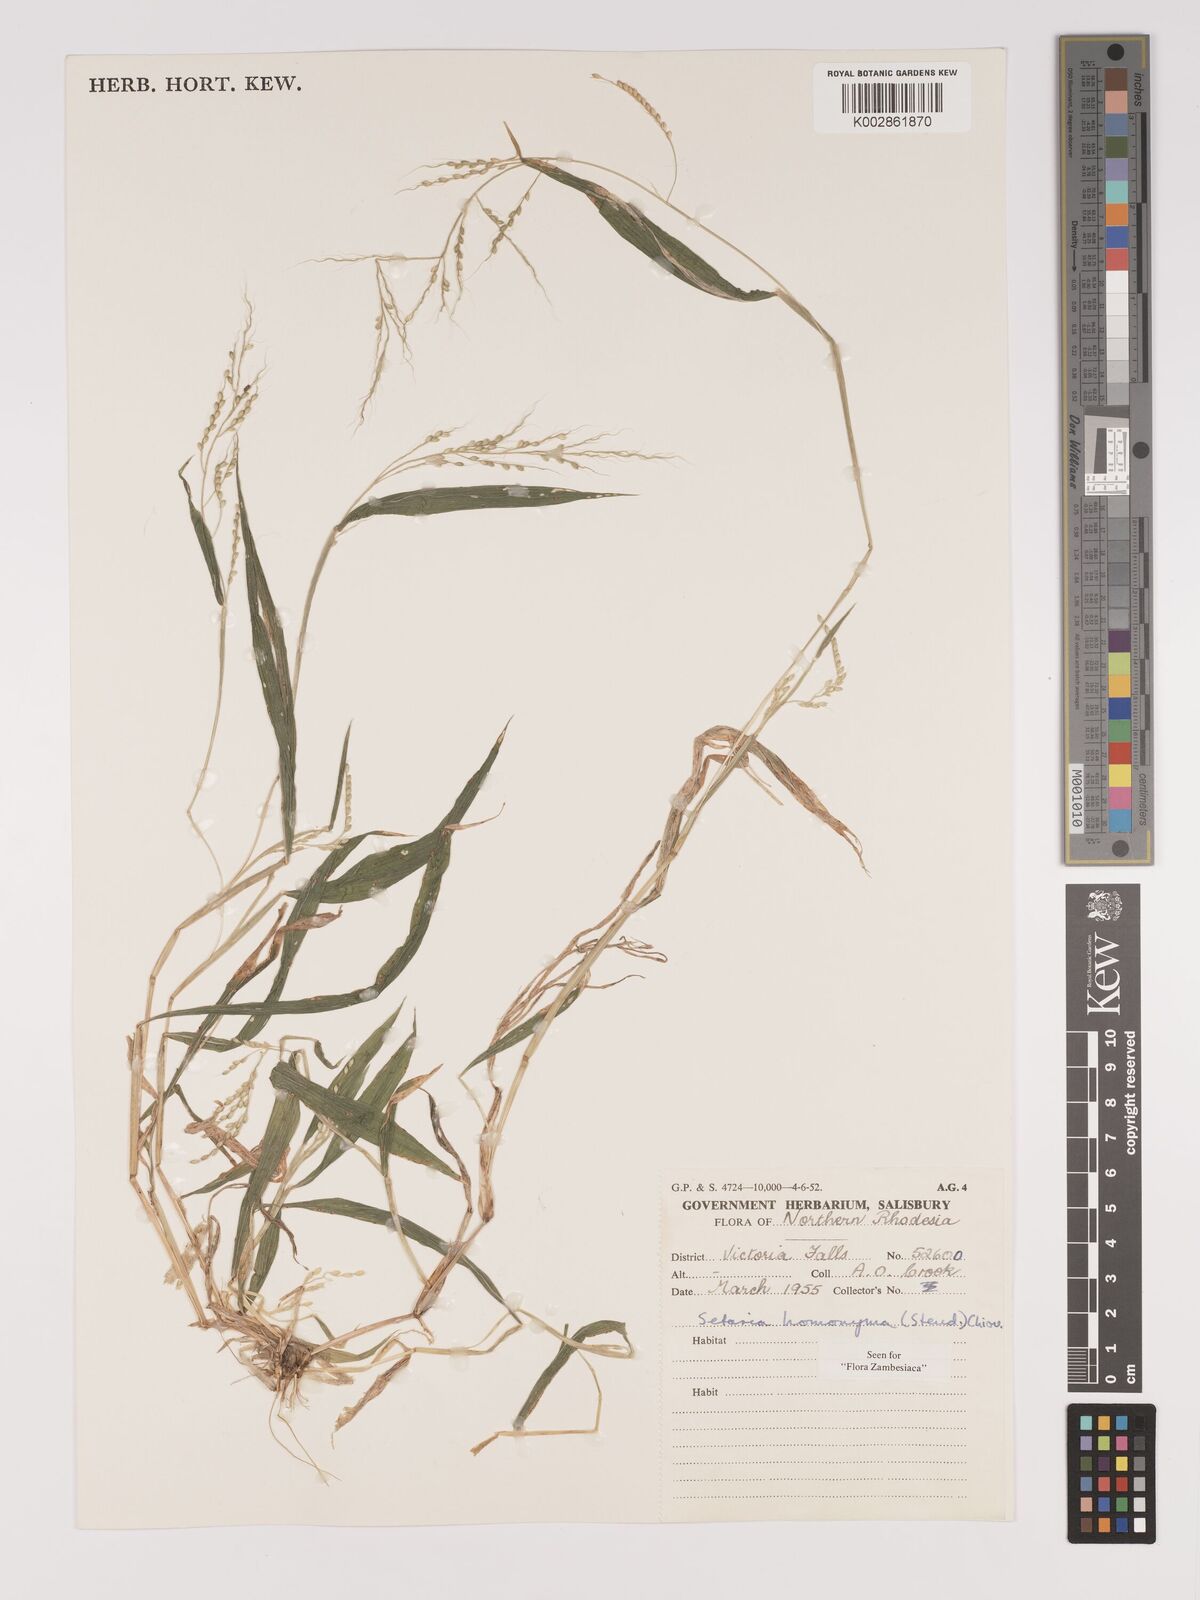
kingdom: Plantae
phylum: Tracheophyta
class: Liliopsida
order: Poales
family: Poaceae
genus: Setaria
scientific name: Setaria homonyma
